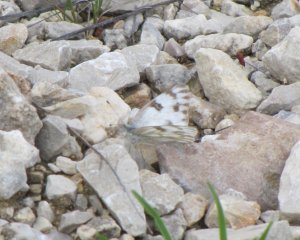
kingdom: Animalia
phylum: Arthropoda
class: Insecta
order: Lepidoptera
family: Pieridae
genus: Pontia
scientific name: Pontia protodice
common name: Checkered White
